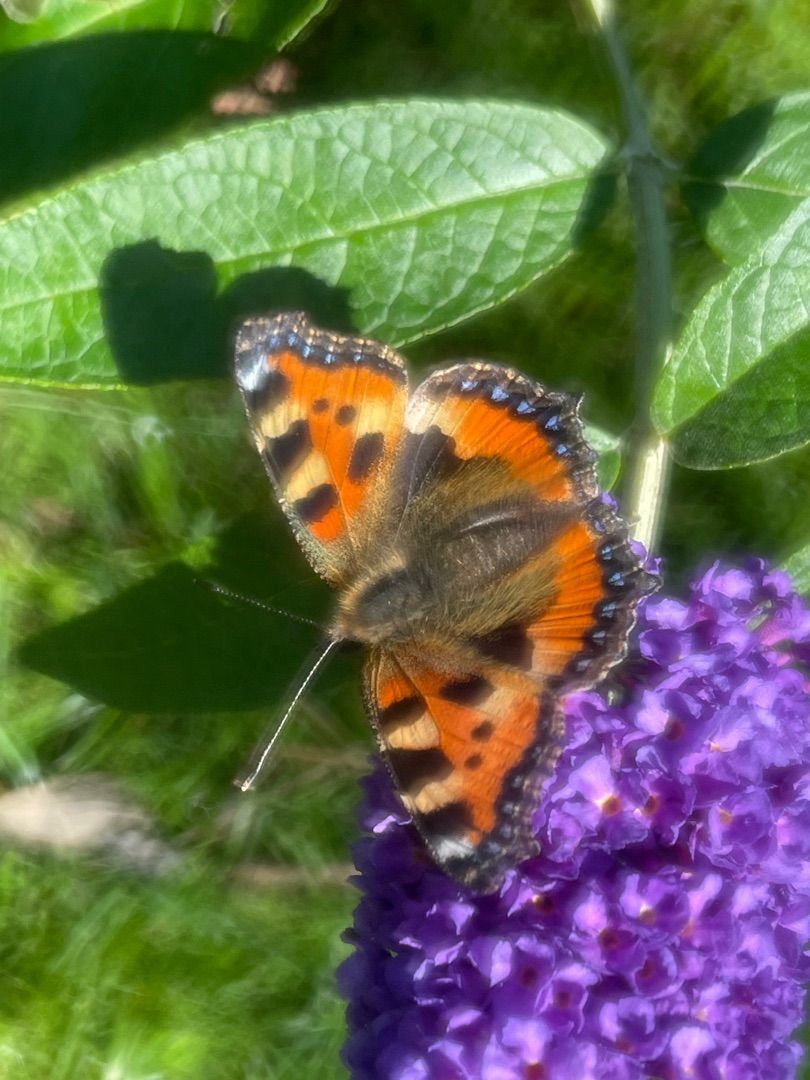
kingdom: Animalia
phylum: Arthropoda
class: Insecta
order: Lepidoptera
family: Nymphalidae
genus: Aglais
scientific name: Aglais urticae
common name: Nældens takvinge
